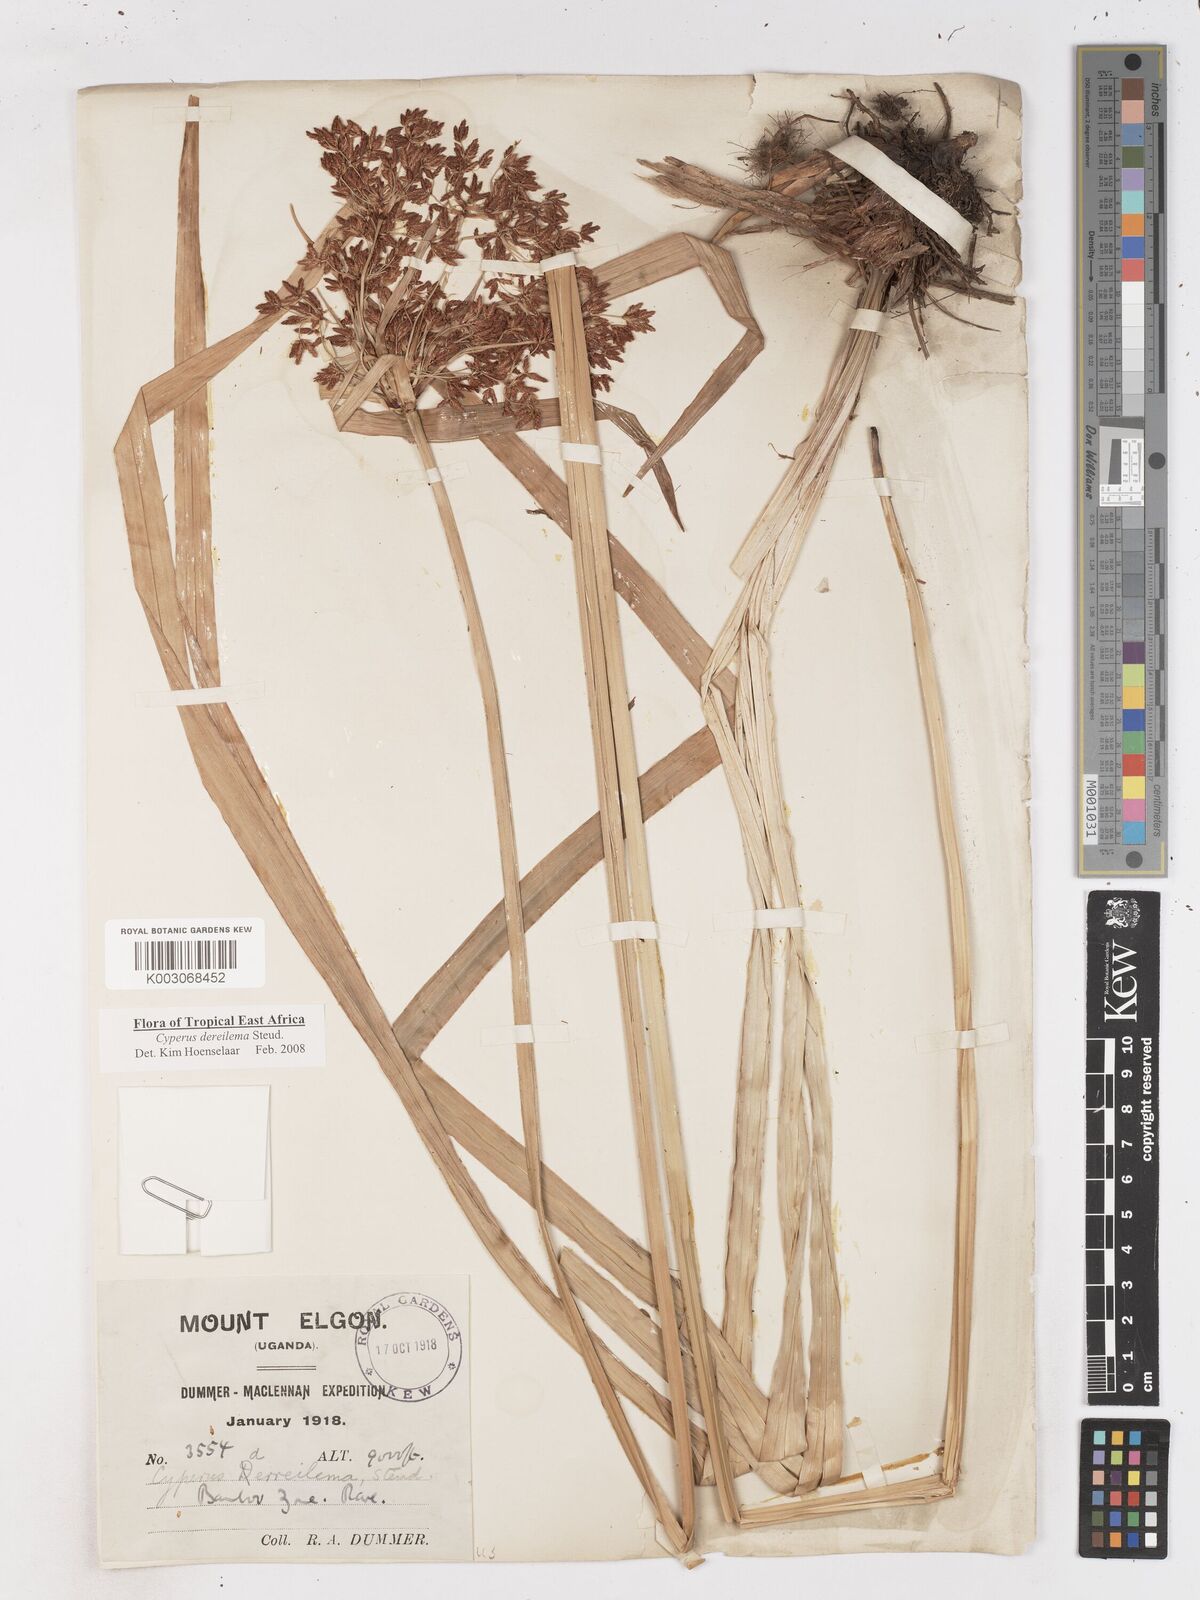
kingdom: Plantae
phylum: Tracheophyta
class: Liliopsida
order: Poales
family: Cyperaceae
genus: Cyperus
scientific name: Cyperus derreilema
